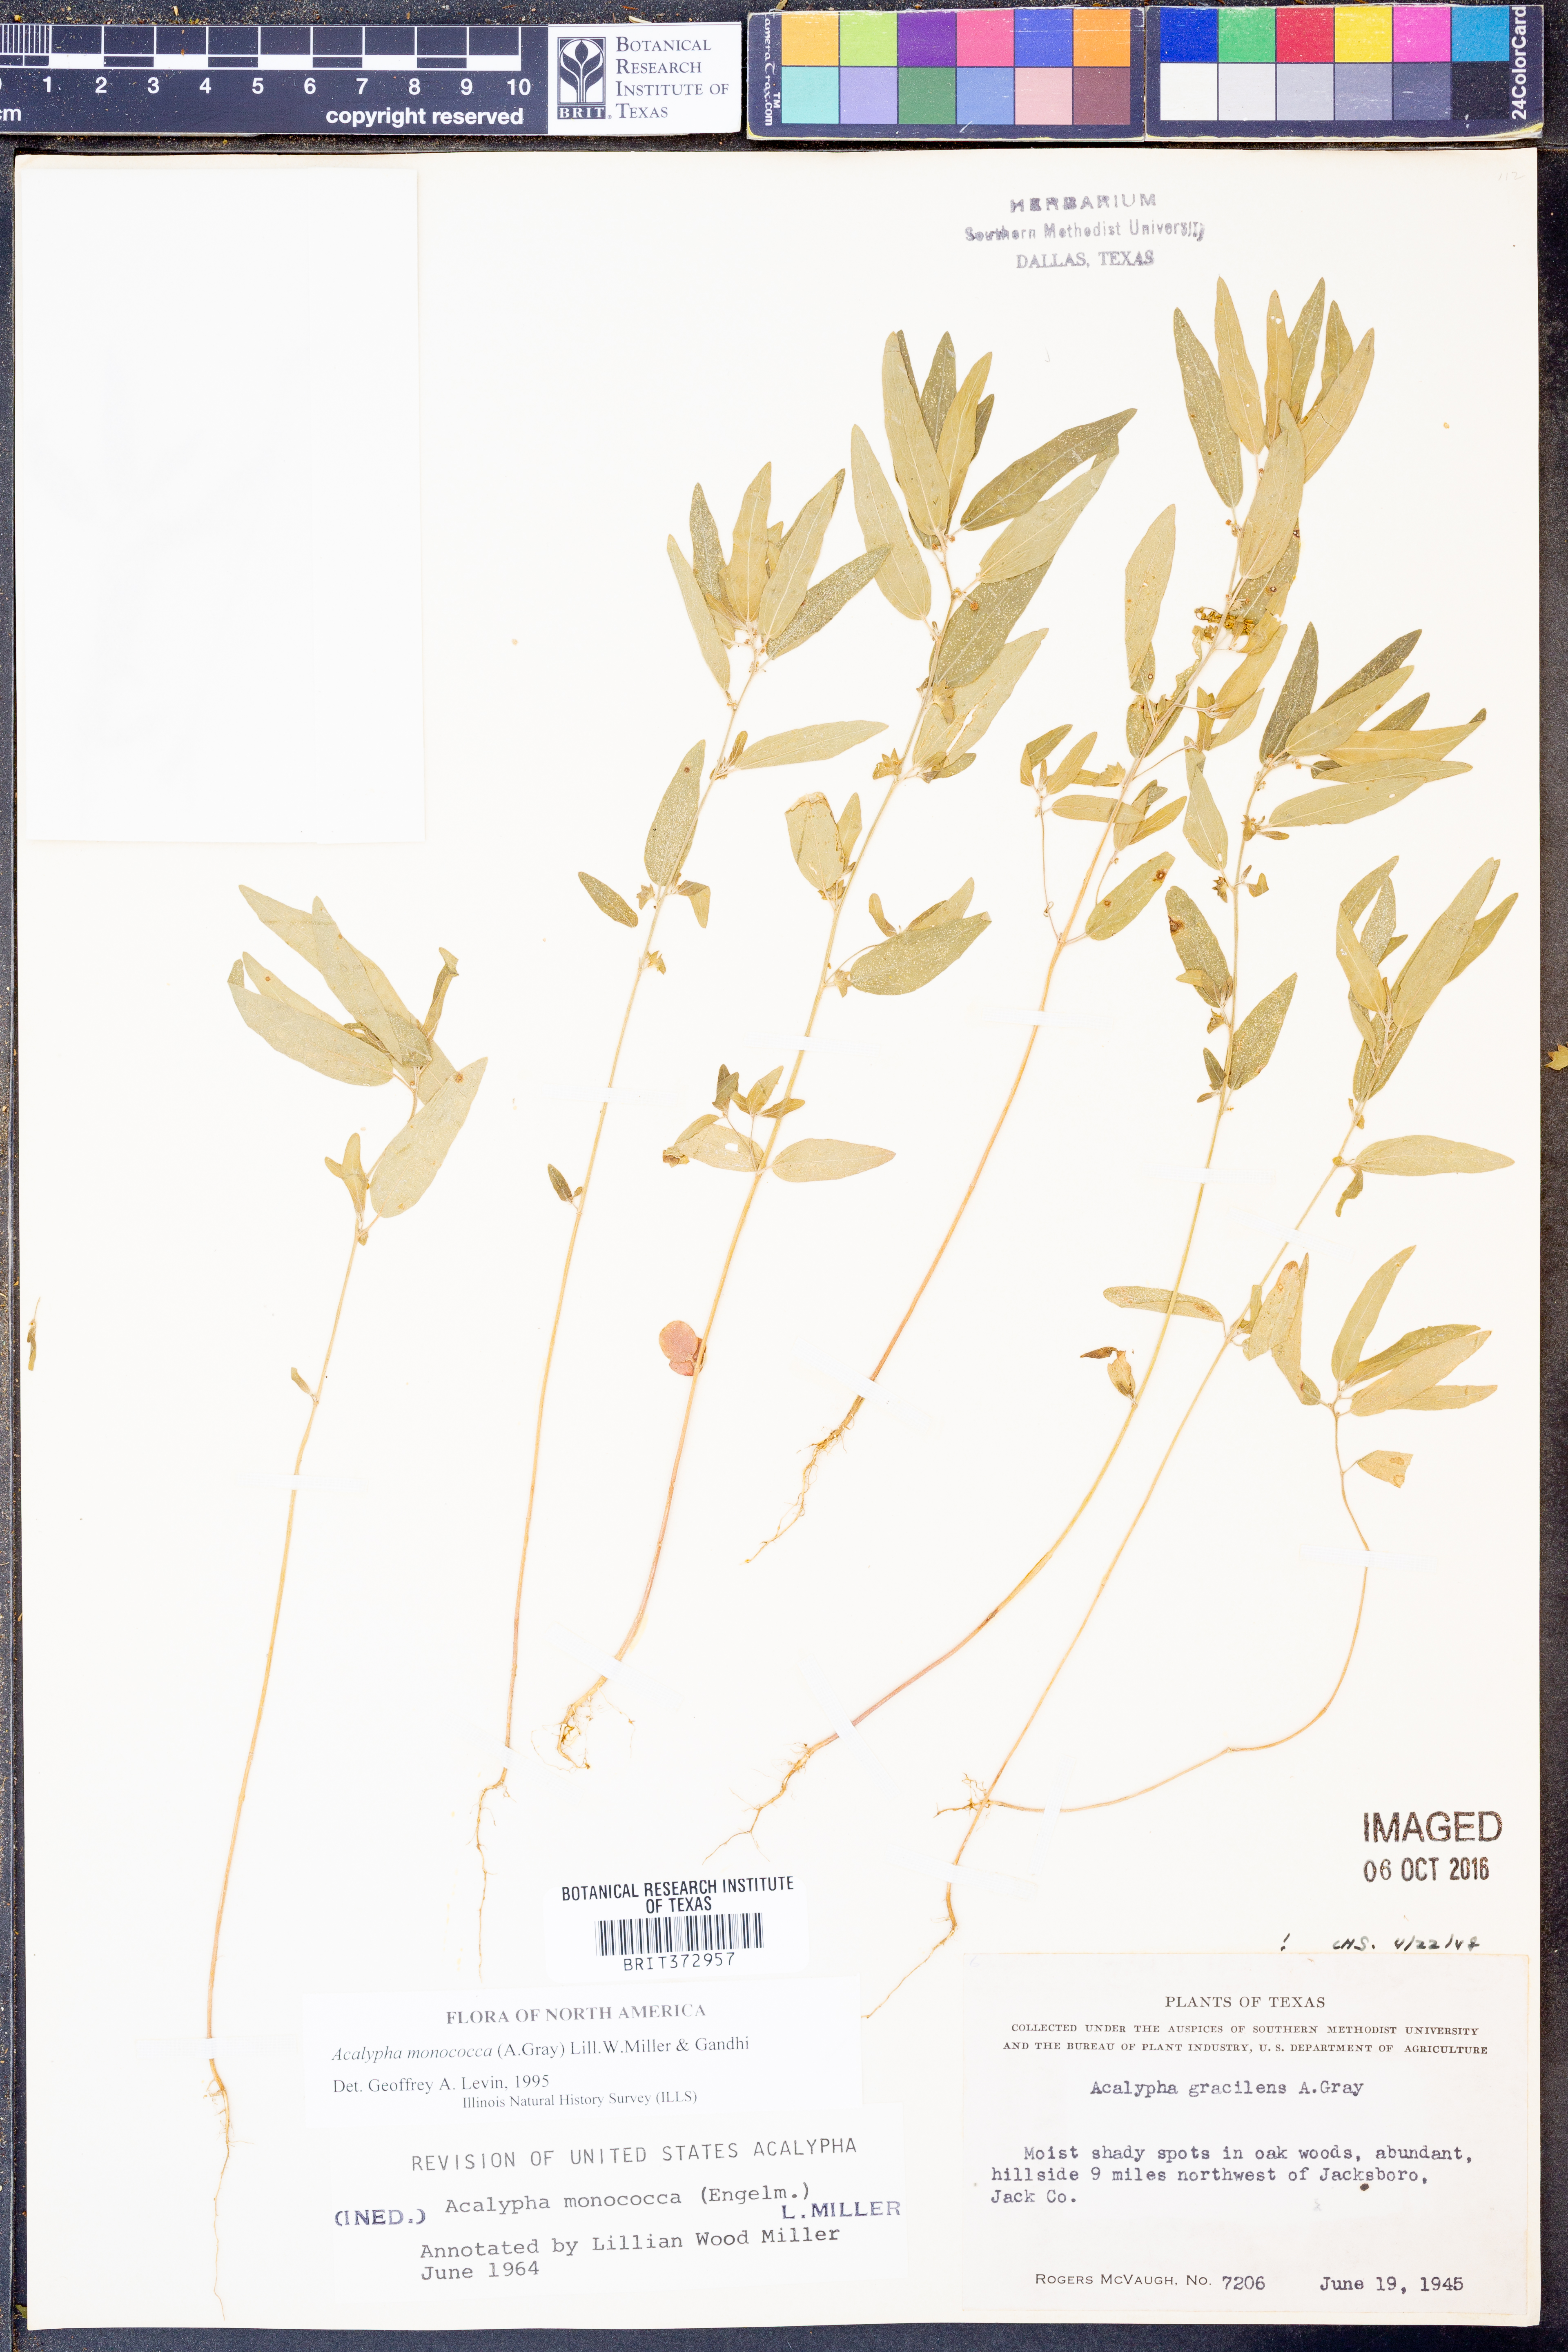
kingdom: Plantae
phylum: Tracheophyta
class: Magnoliopsida
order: Malpighiales
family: Euphorbiaceae
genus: Acalypha
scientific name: Acalypha monococca
